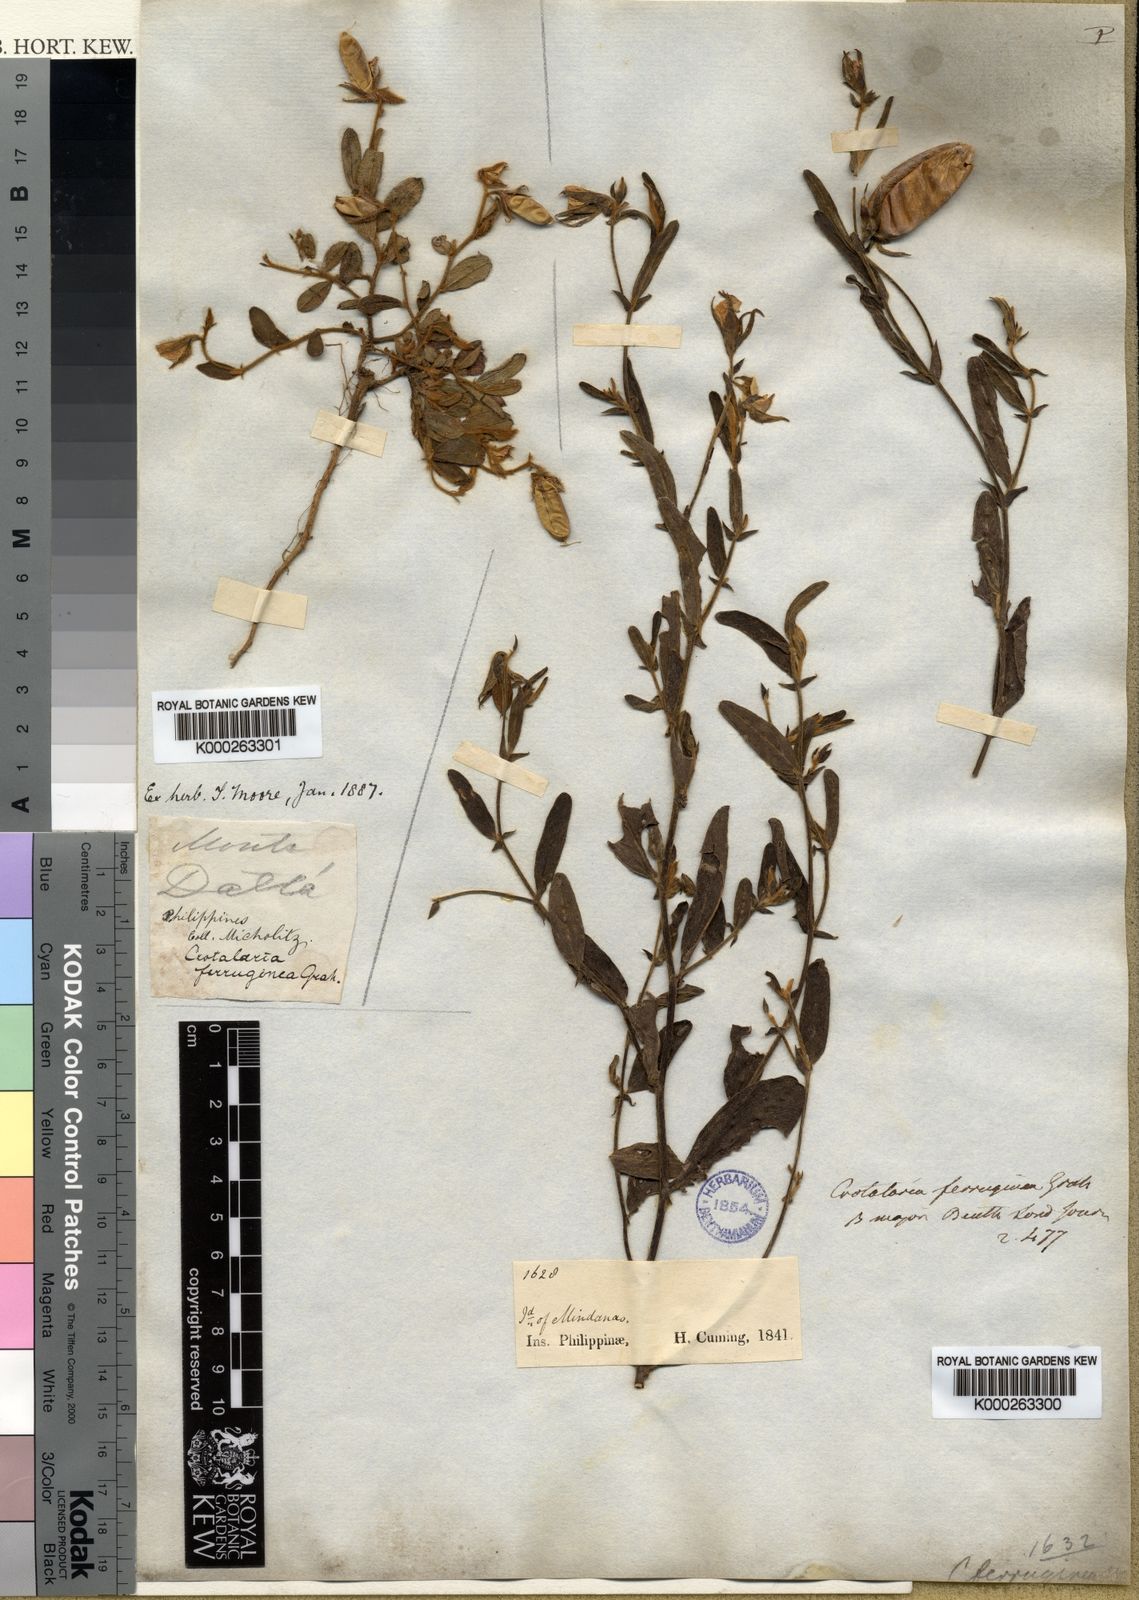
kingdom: Plantae
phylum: Tracheophyta
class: Magnoliopsida
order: Fabales
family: Fabaceae
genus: Crotalaria
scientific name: Crotalaria lejoloba
